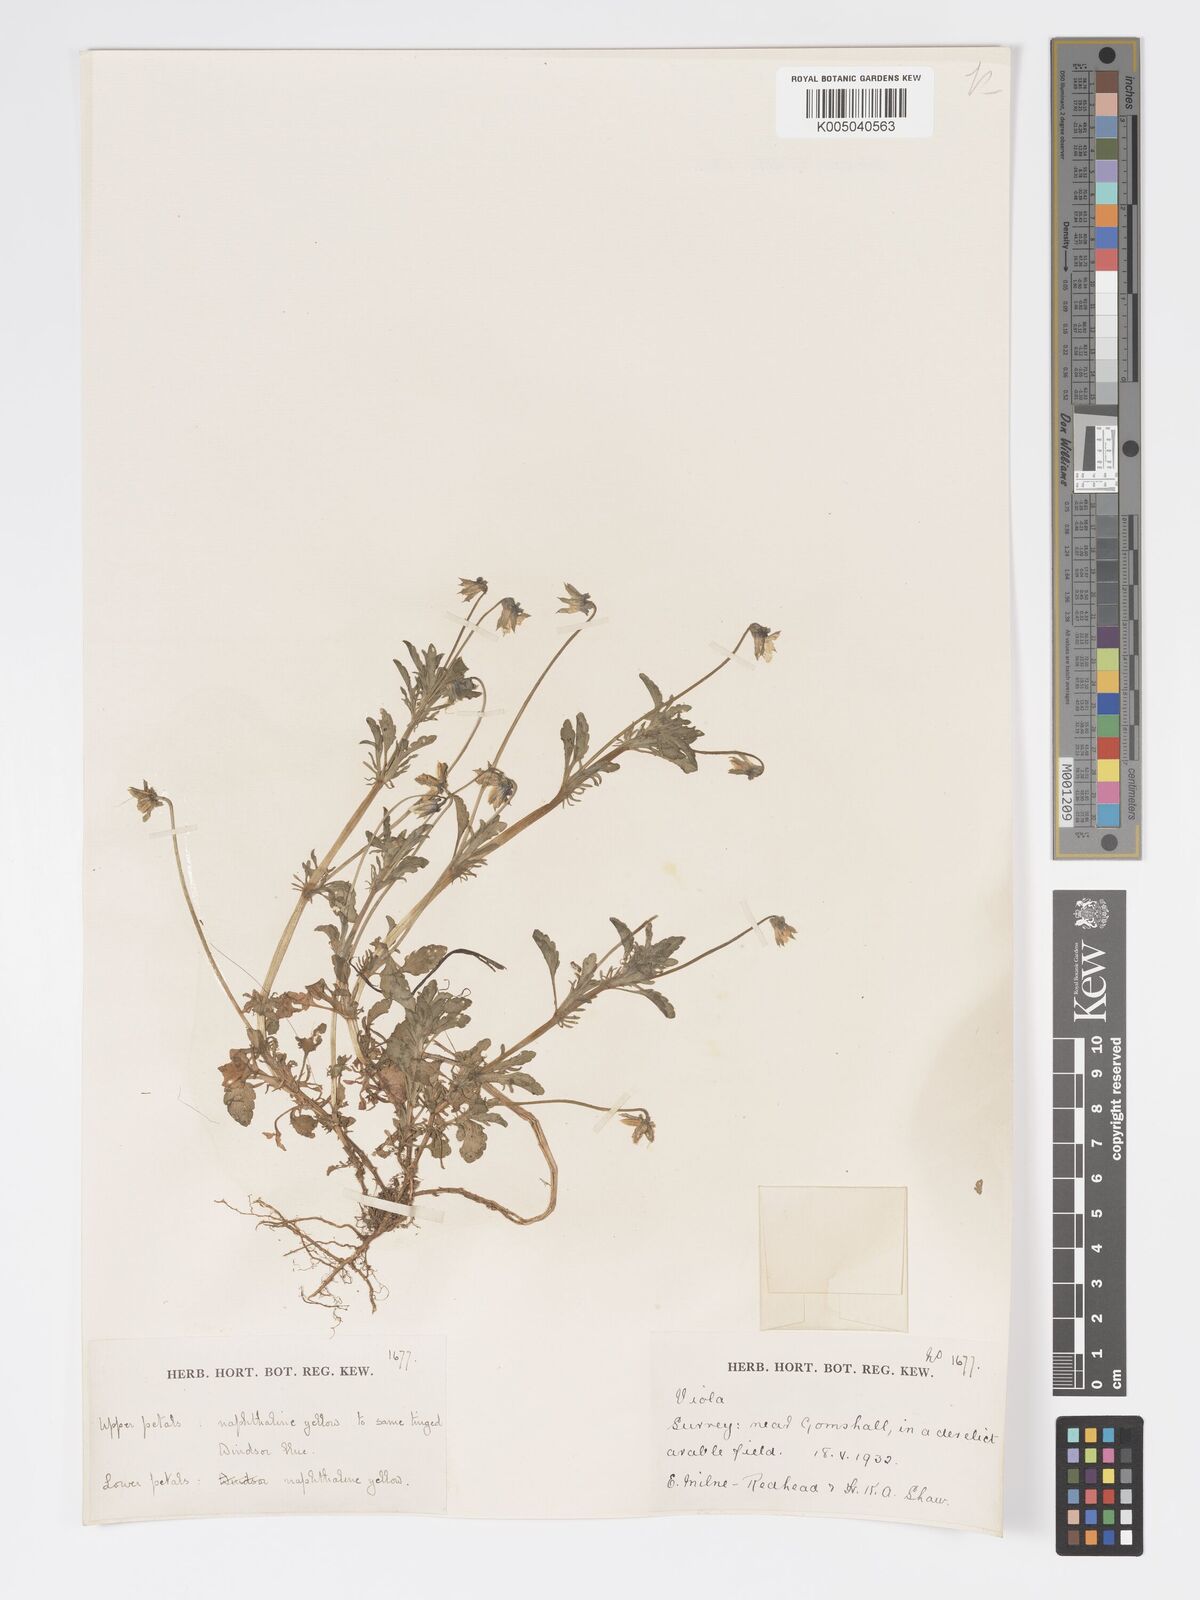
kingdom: Plantae
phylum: Tracheophyta
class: Magnoliopsida
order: Malpighiales
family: Violaceae
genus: Viola
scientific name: Viola
